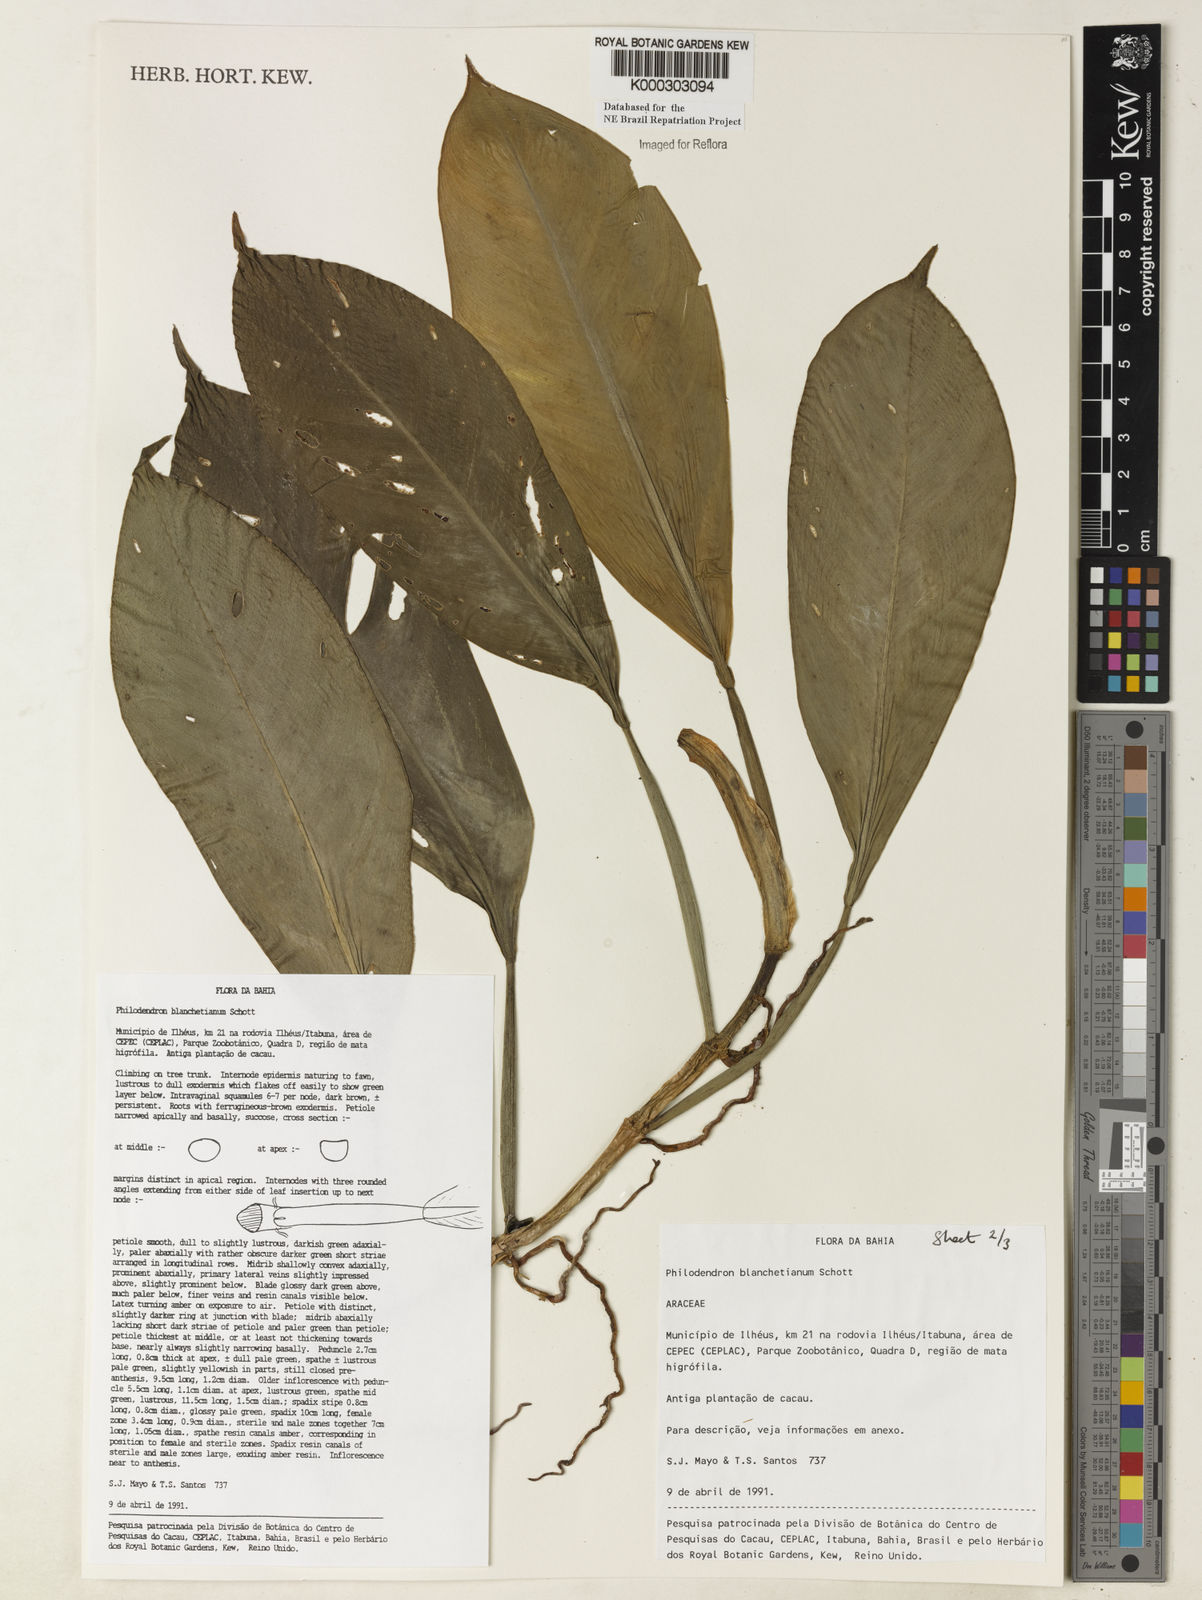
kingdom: Plantae
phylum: Tracheophyta
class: Liliopsida
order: Alismatales
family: Araceae
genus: Philodendron
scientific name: Philodendron blanchetianum
